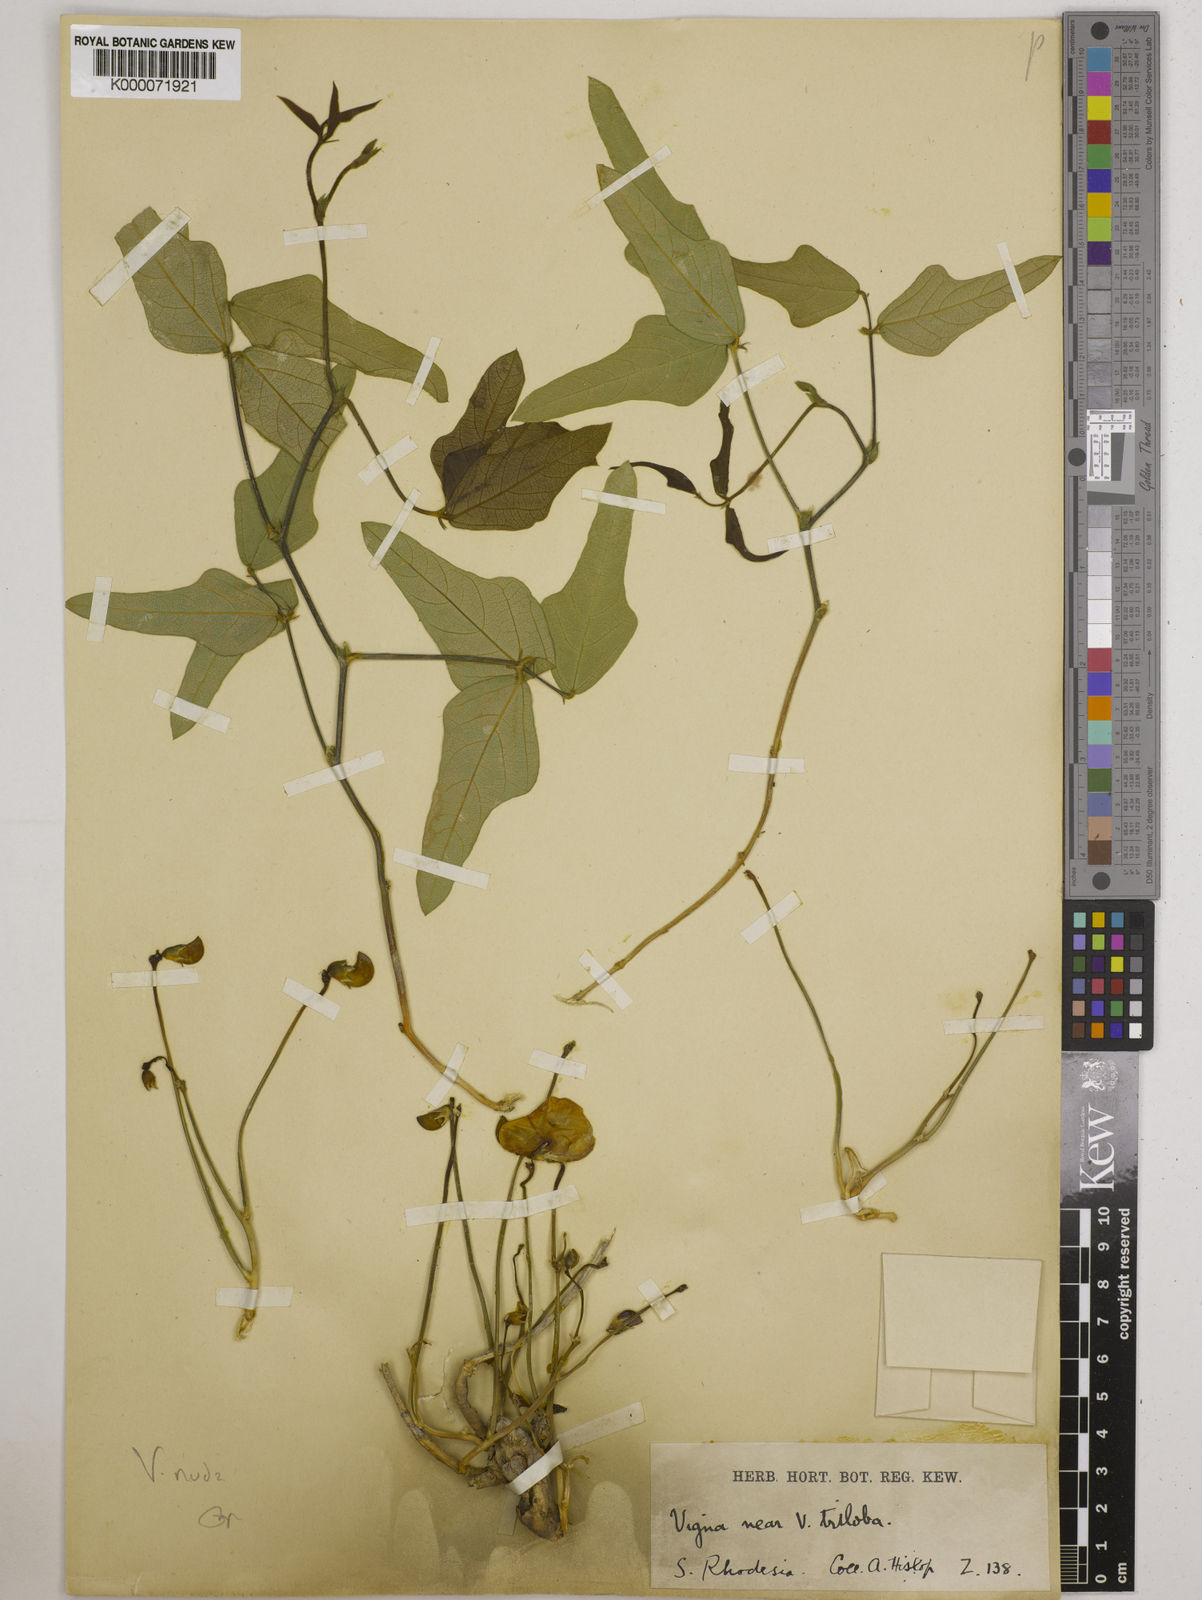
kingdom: Plantae
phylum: Tracheophyta
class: Magnoliopsida
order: Fabales
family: Fabaceae
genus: Vigna
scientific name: Vigna antunesii
